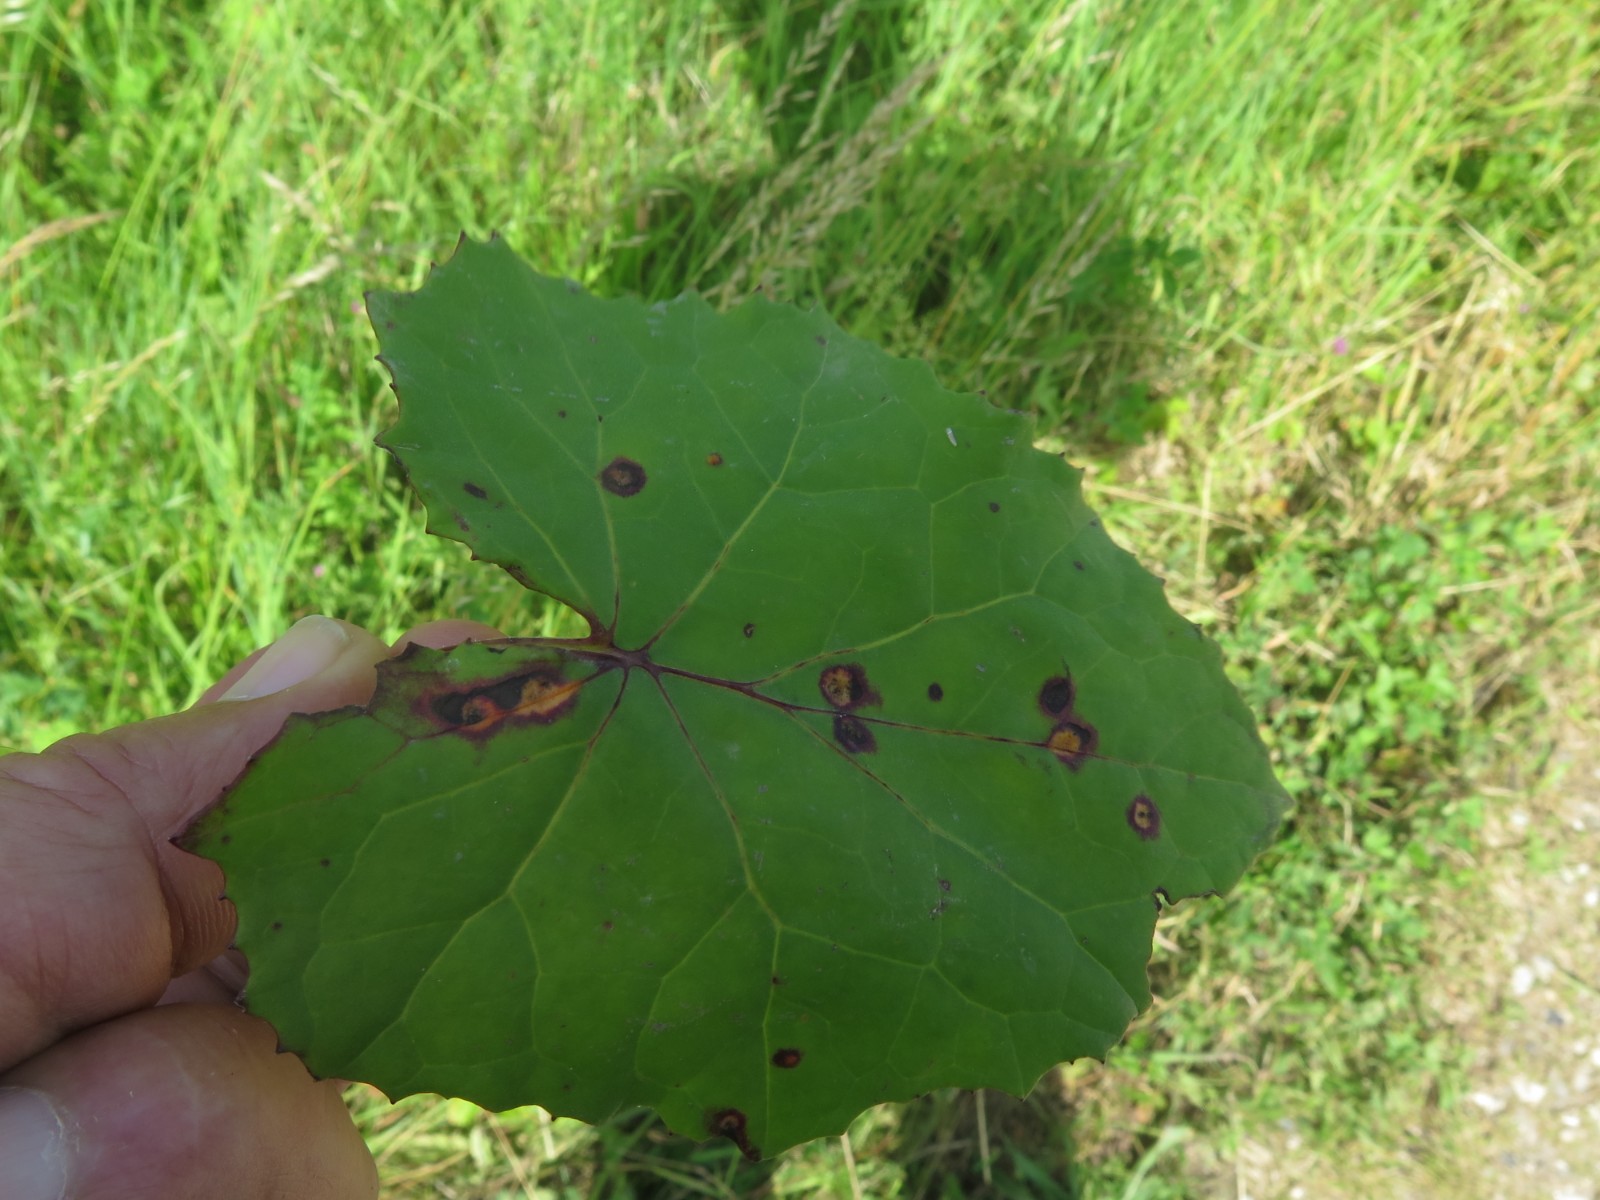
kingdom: Fungi
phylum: Basidiomycota
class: Pucciniomycetes
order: Pucciniales
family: Pucciniaceae
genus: Puccinia
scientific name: Puccinia poarum
